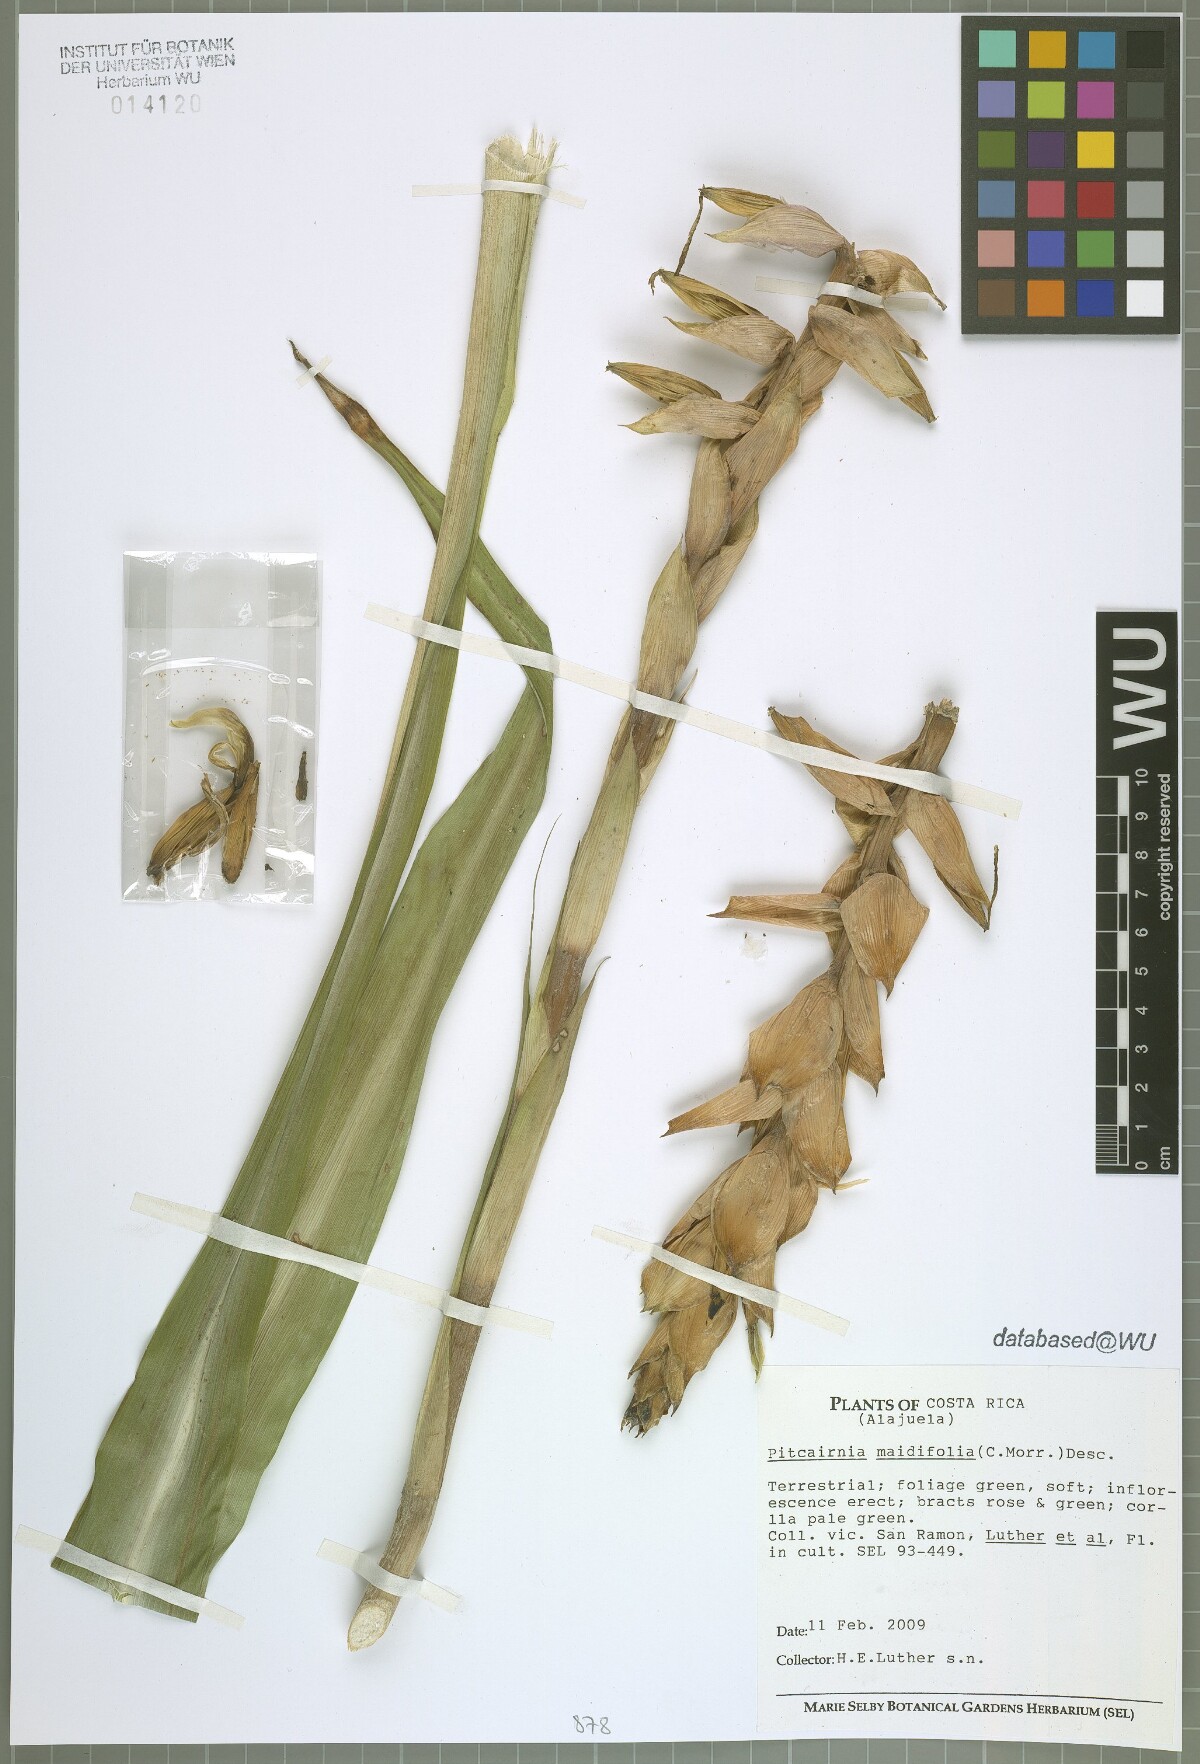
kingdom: Plantae
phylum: Tracheophyta
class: Liliopsida
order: Poales
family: Bromeliaceae
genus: Pitcairnia
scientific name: Pitcairnia maidifolia
